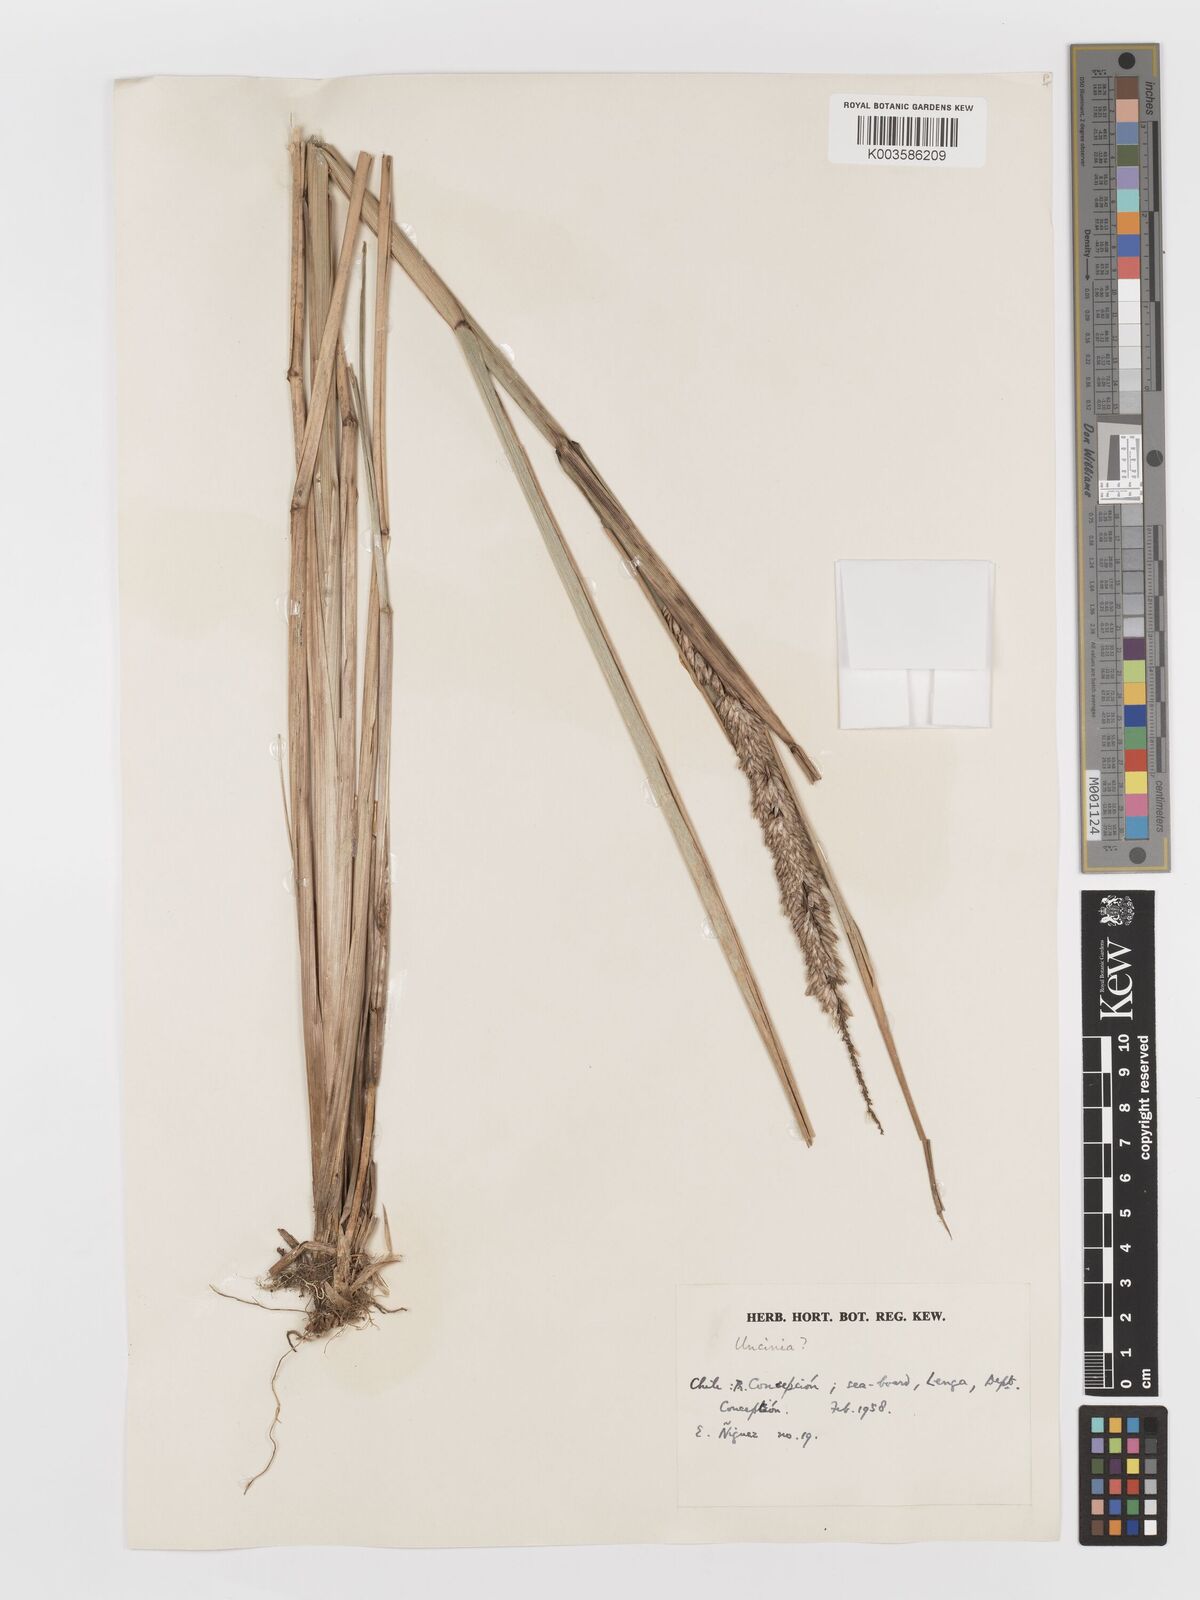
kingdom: Plantae
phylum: Tracheophyta
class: Liliopsida
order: Poales
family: Poaceae
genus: Anthoxanthum
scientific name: Anthoxanthum redolens
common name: Sweet holy grass
